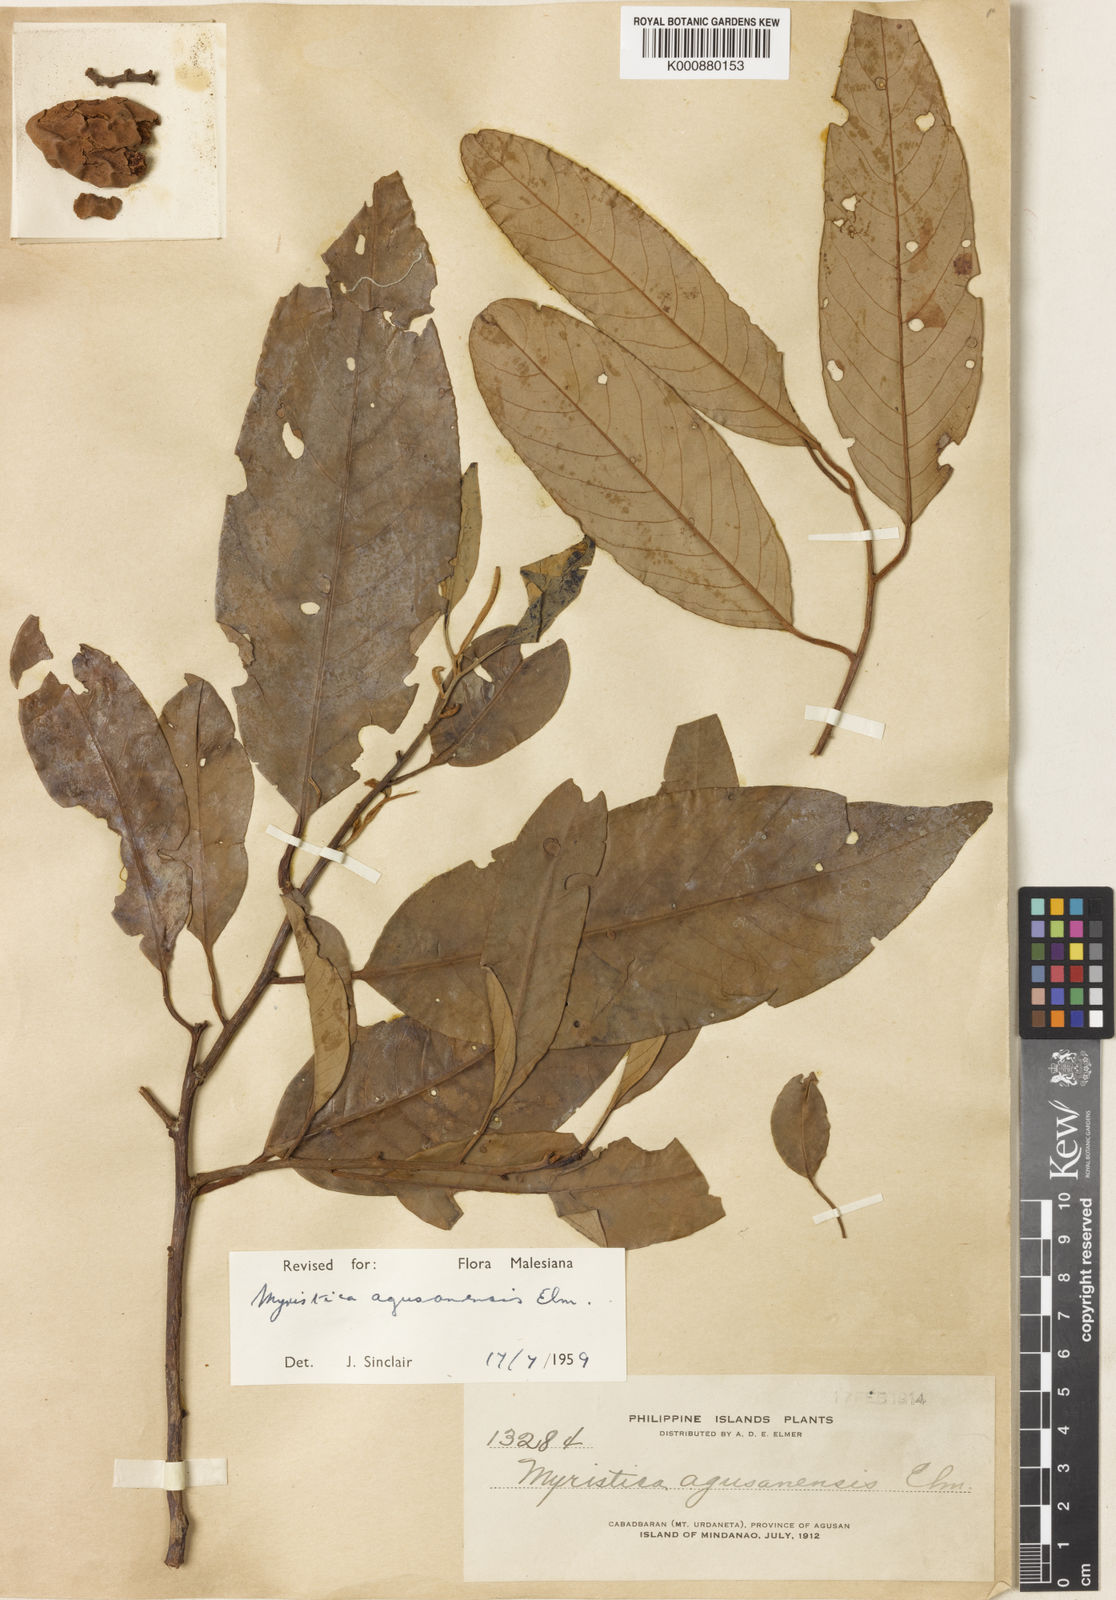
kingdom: Plantae
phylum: Tracheophyta
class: Magnoliopsida
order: Magnoliales
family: Myristicaceae
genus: Myristica
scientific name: Myristica agusanensis
